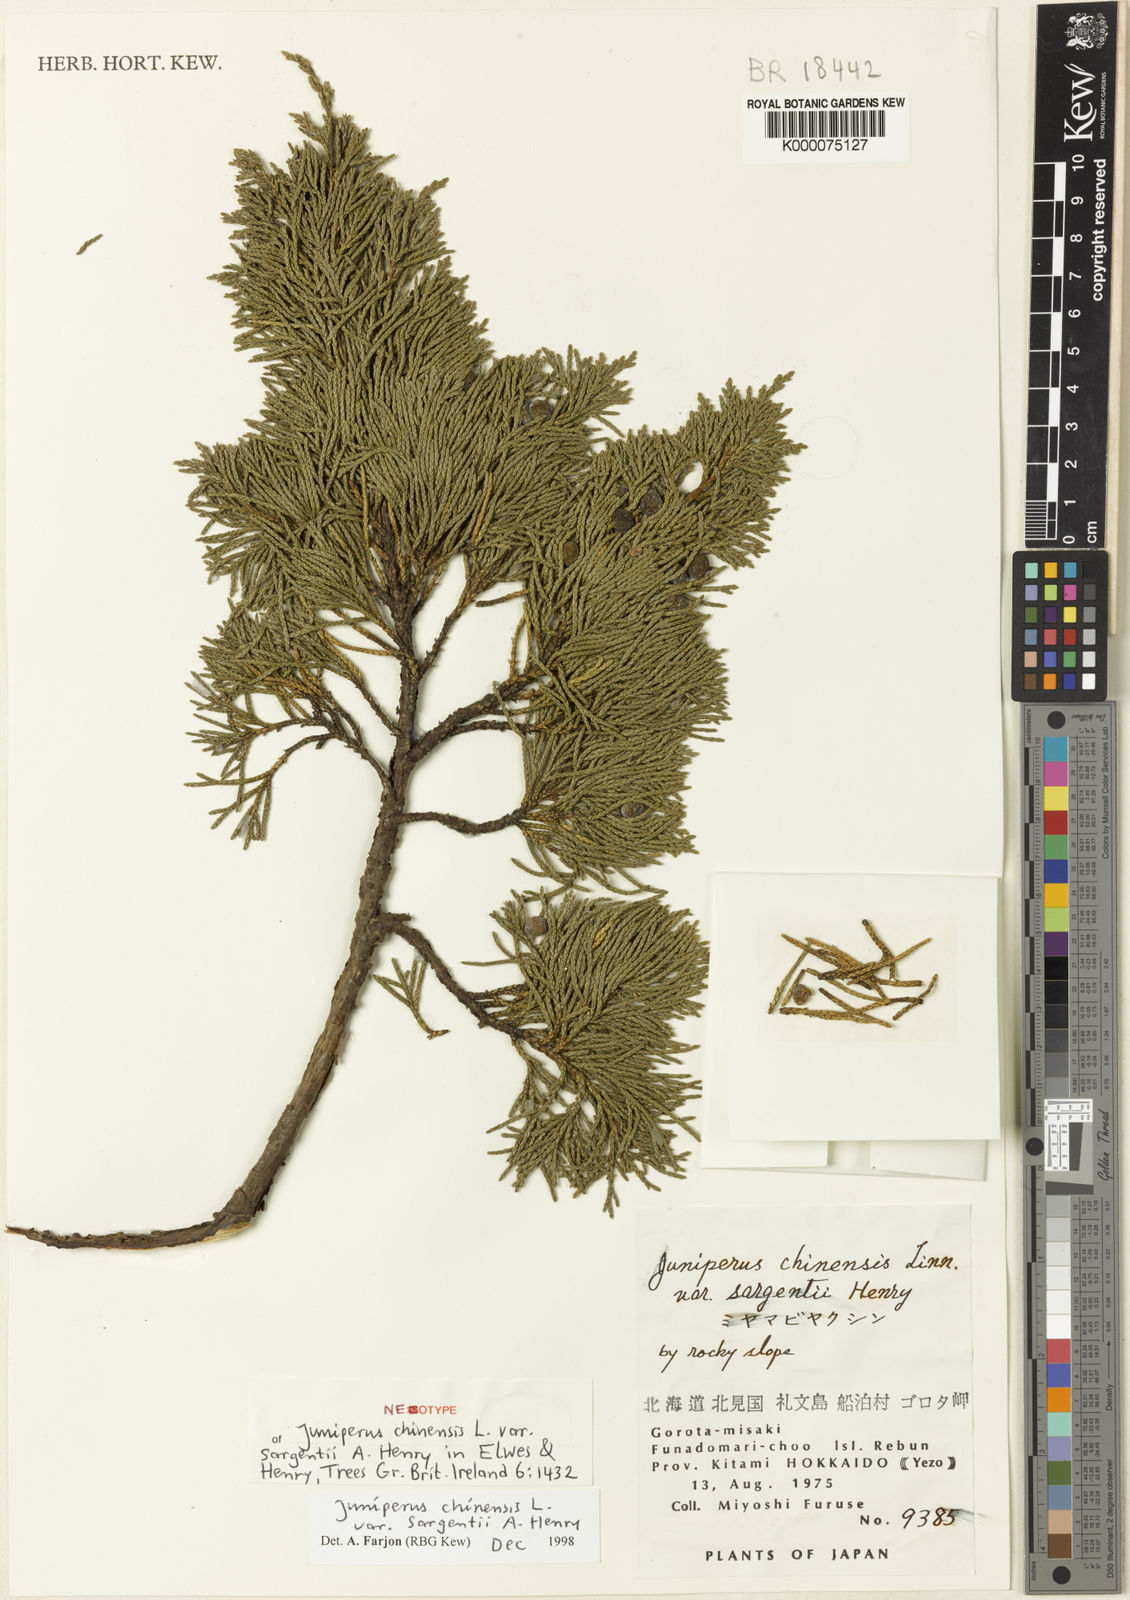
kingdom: Plantae
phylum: Tracheophyta
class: Pinopsida
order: Pinales
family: Cupressaceae
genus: Juniperus
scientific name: Juniperus chinensis
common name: Chinese juniper
